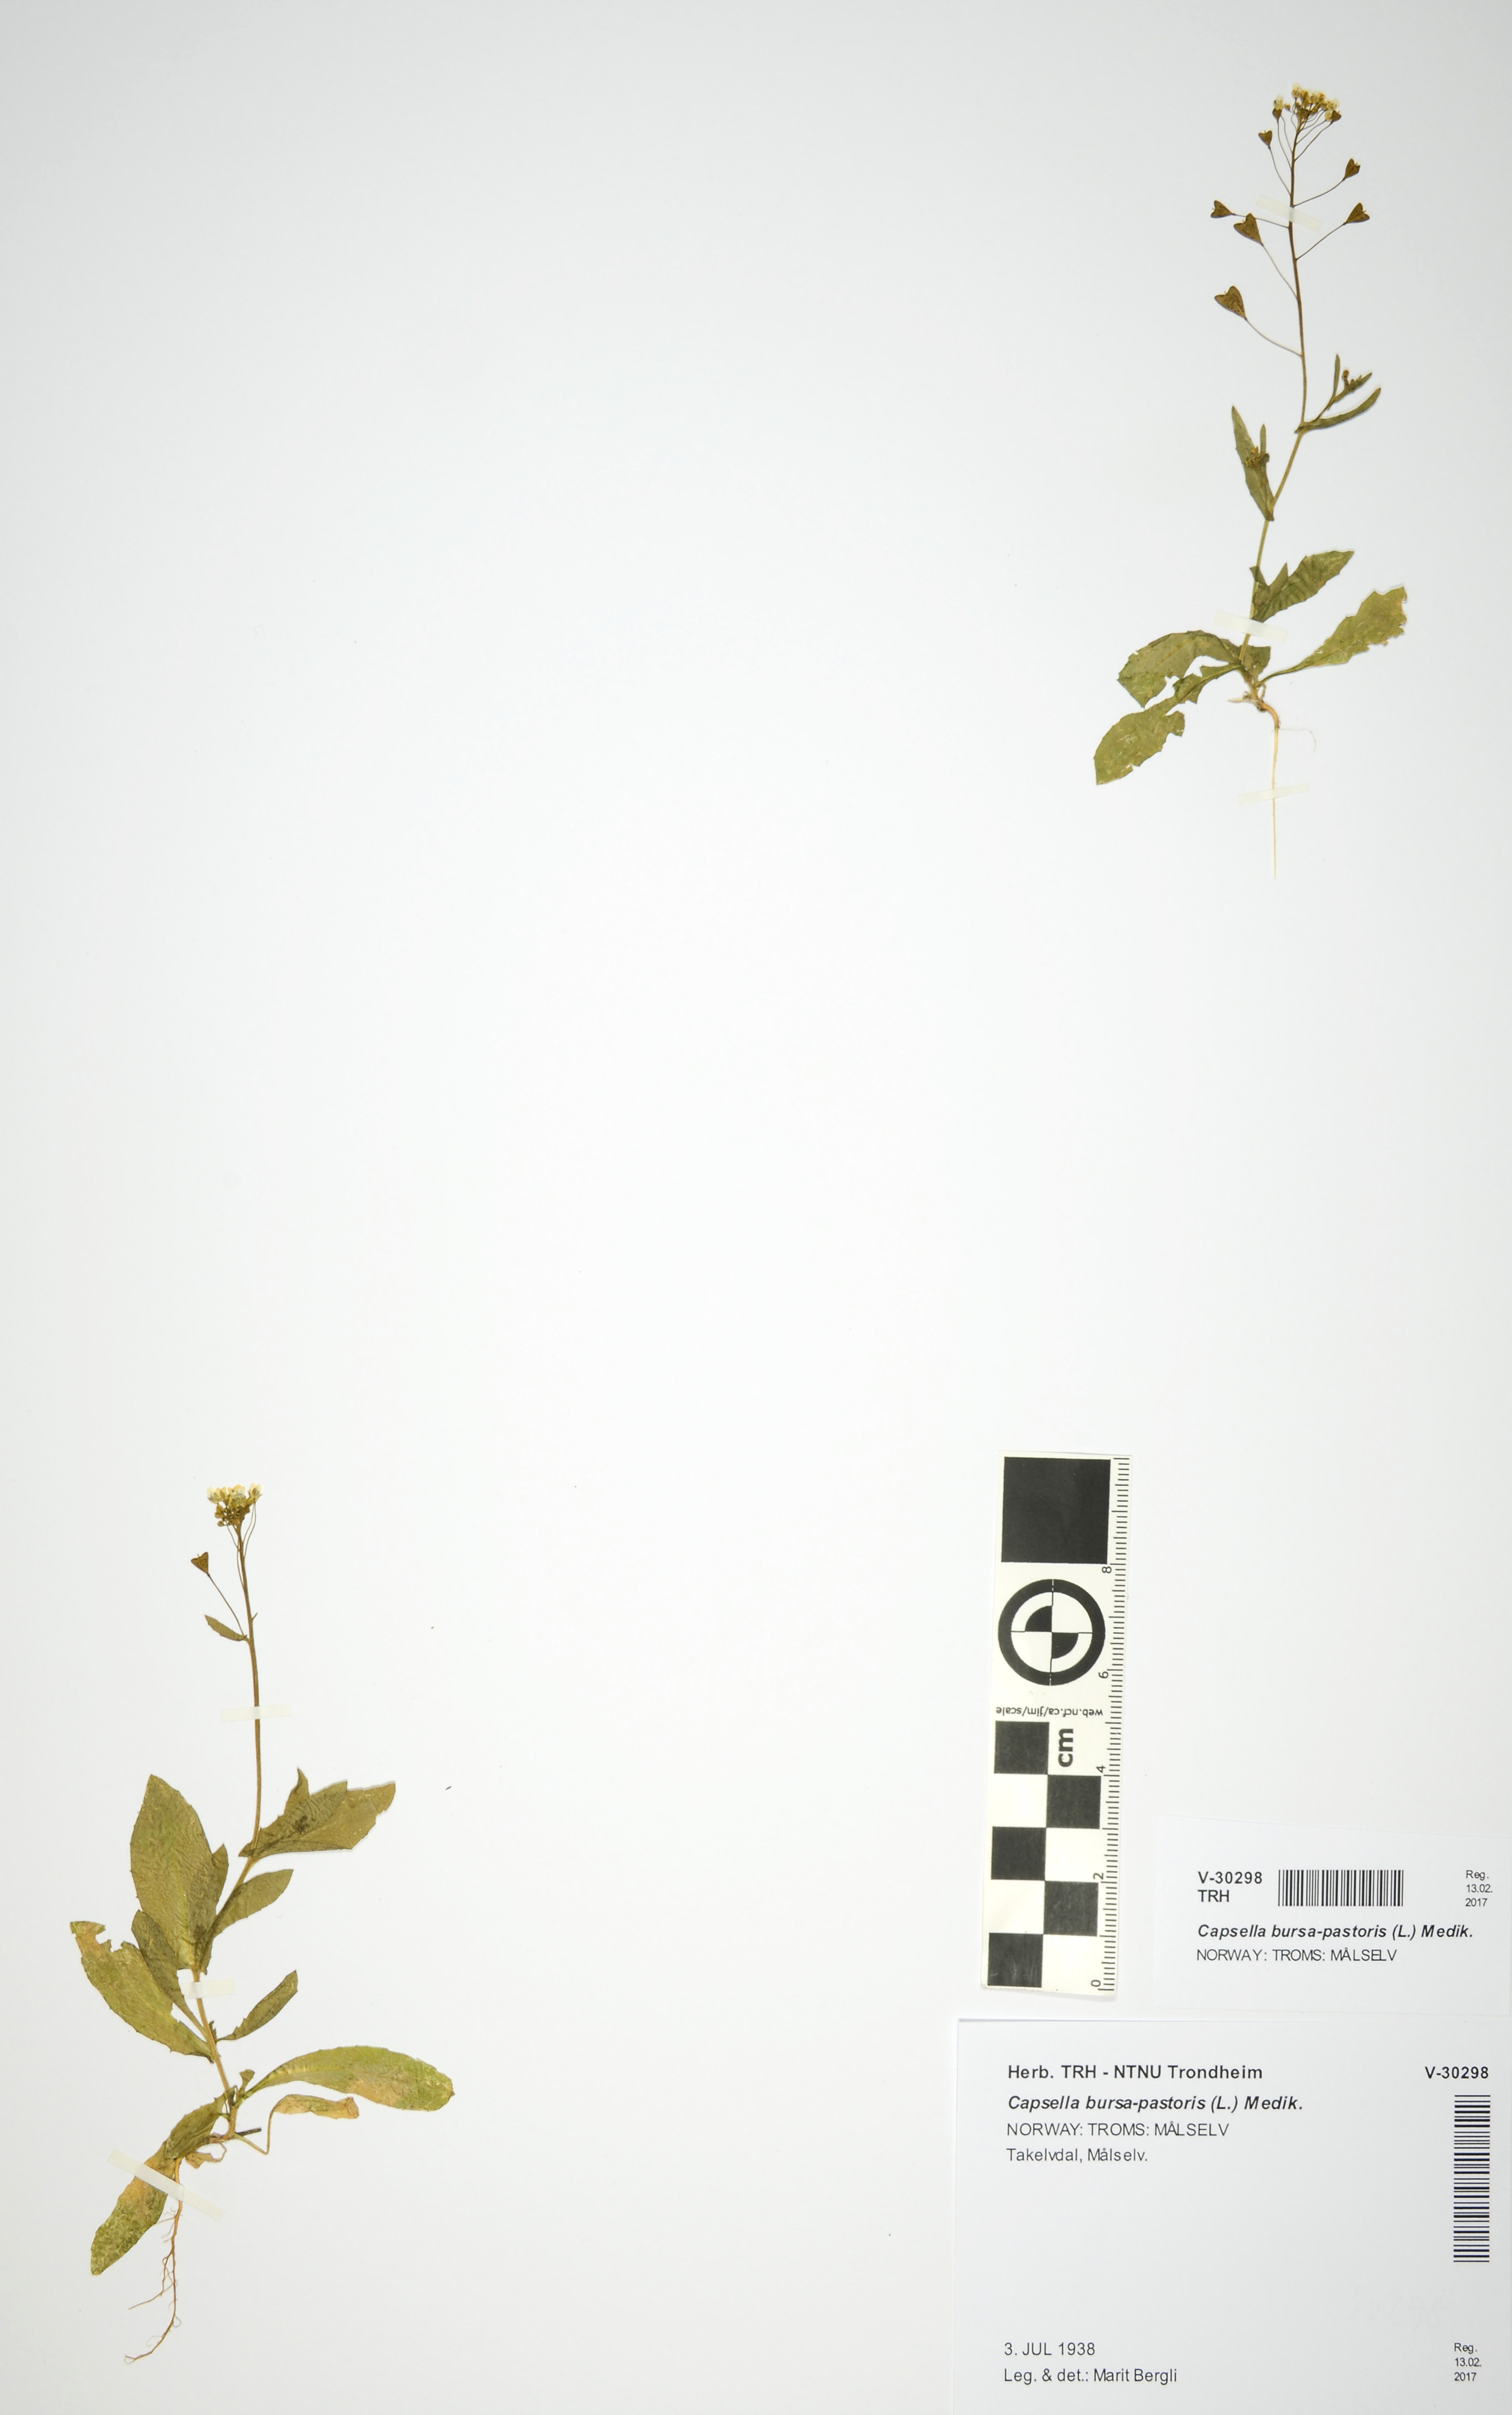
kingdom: Plantae
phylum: Tracheophyta
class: Magnoliopsida
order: Brassicales
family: Brassicaceae
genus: Capsella
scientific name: Capsella bursa-pastoris
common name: Shepherd's purse
